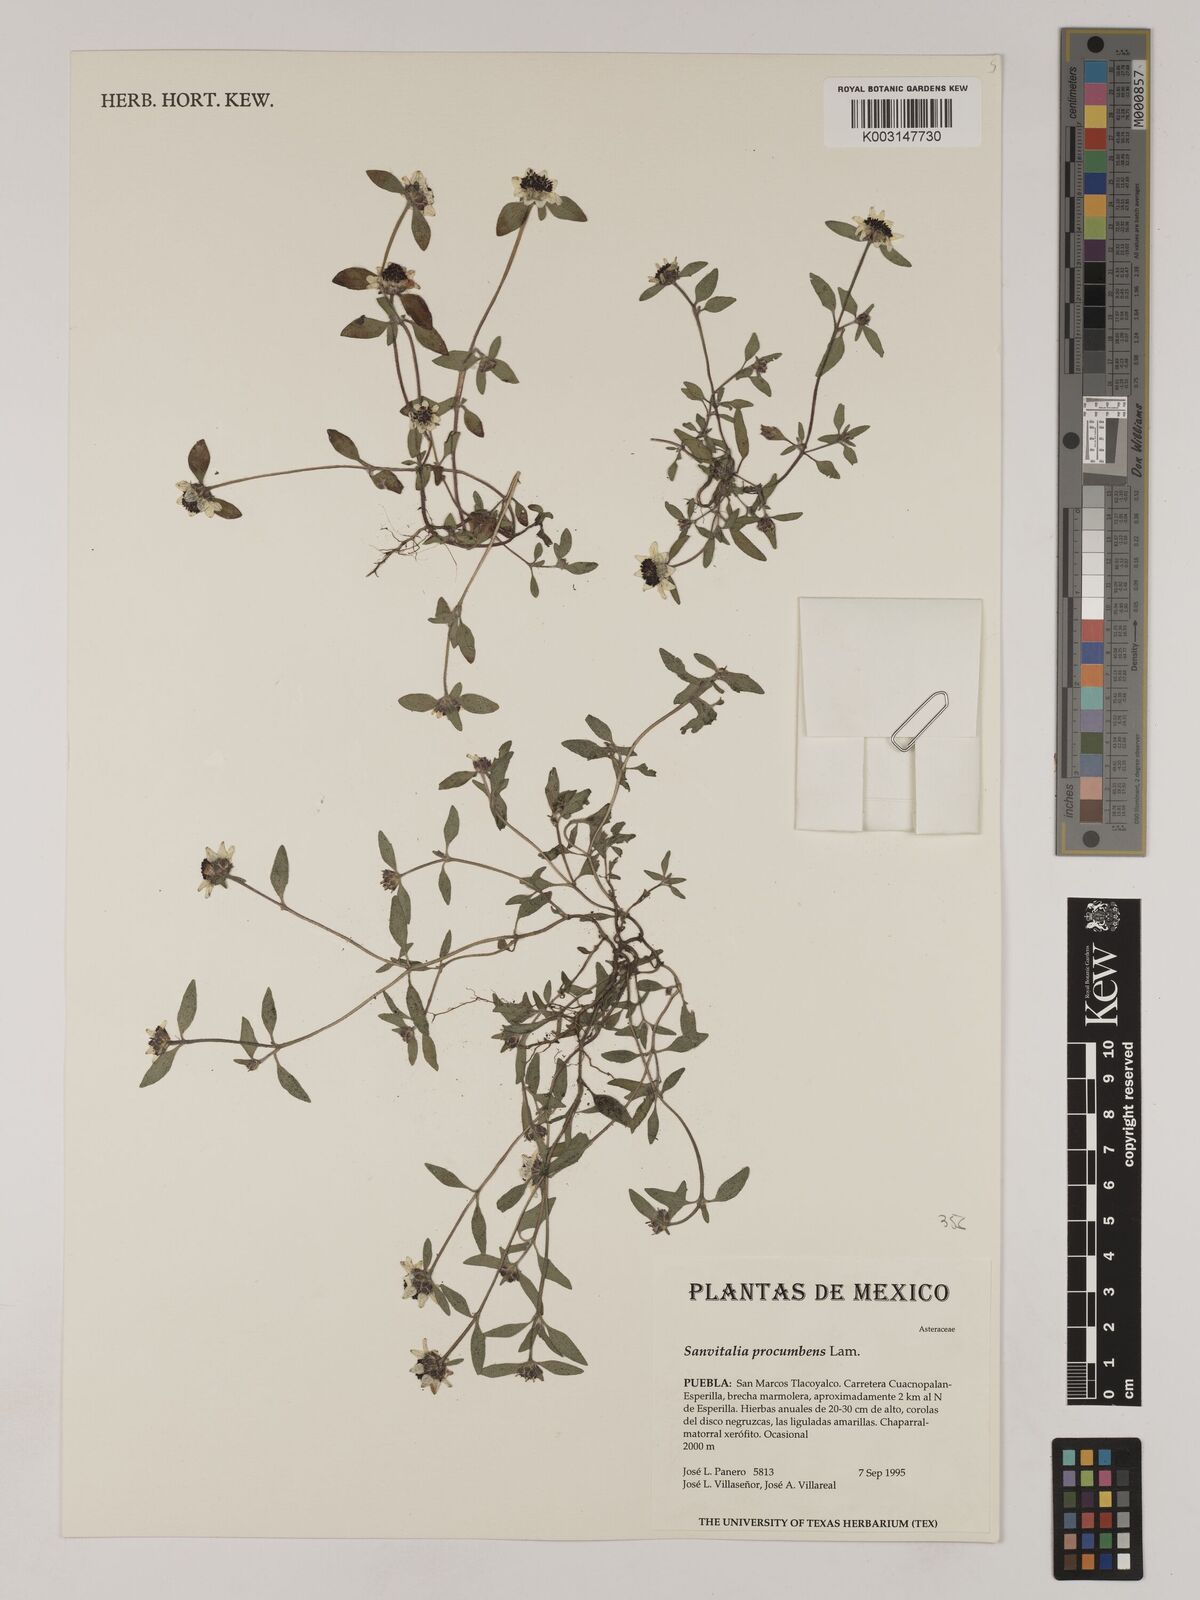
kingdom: Plantae
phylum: Tracheophyta
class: Magnoliopsida
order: Asterales
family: Asteraceae
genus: Sanvitalia
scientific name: Sanvitalia procumbens
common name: Mexican creeping zinnia
